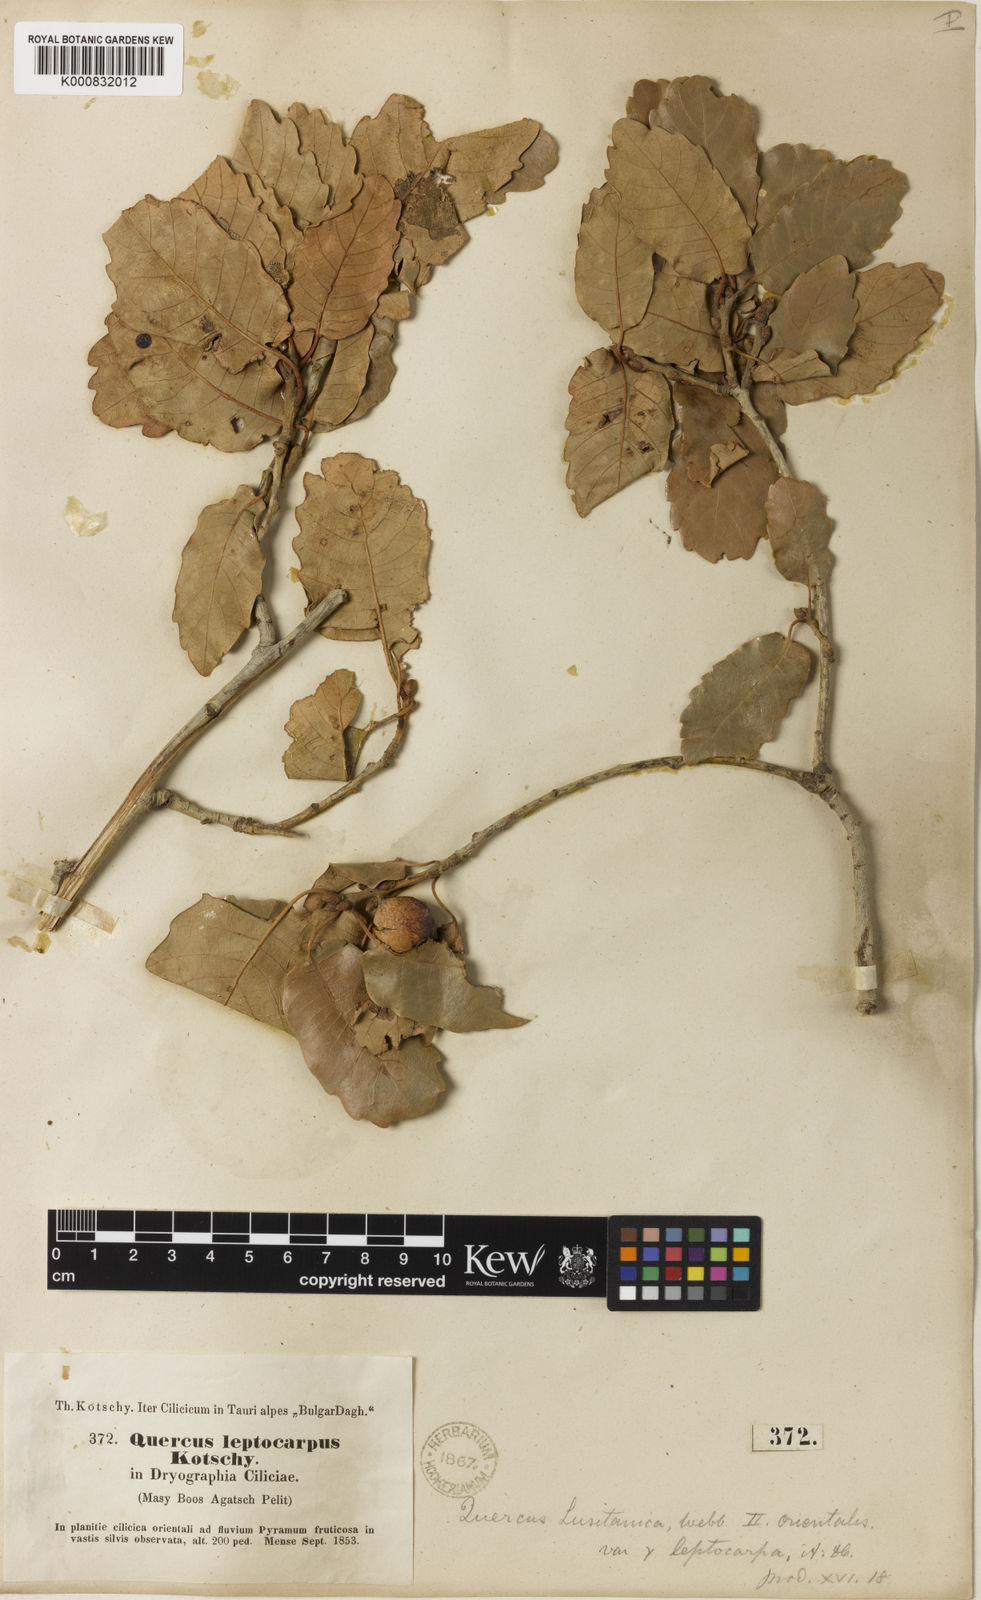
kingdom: Plantae
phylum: Tracheophyta
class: Magnoliopsida
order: Fagales
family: Fagaceae
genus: Quercus
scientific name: Quercus infectoria
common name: Aleppo oak
